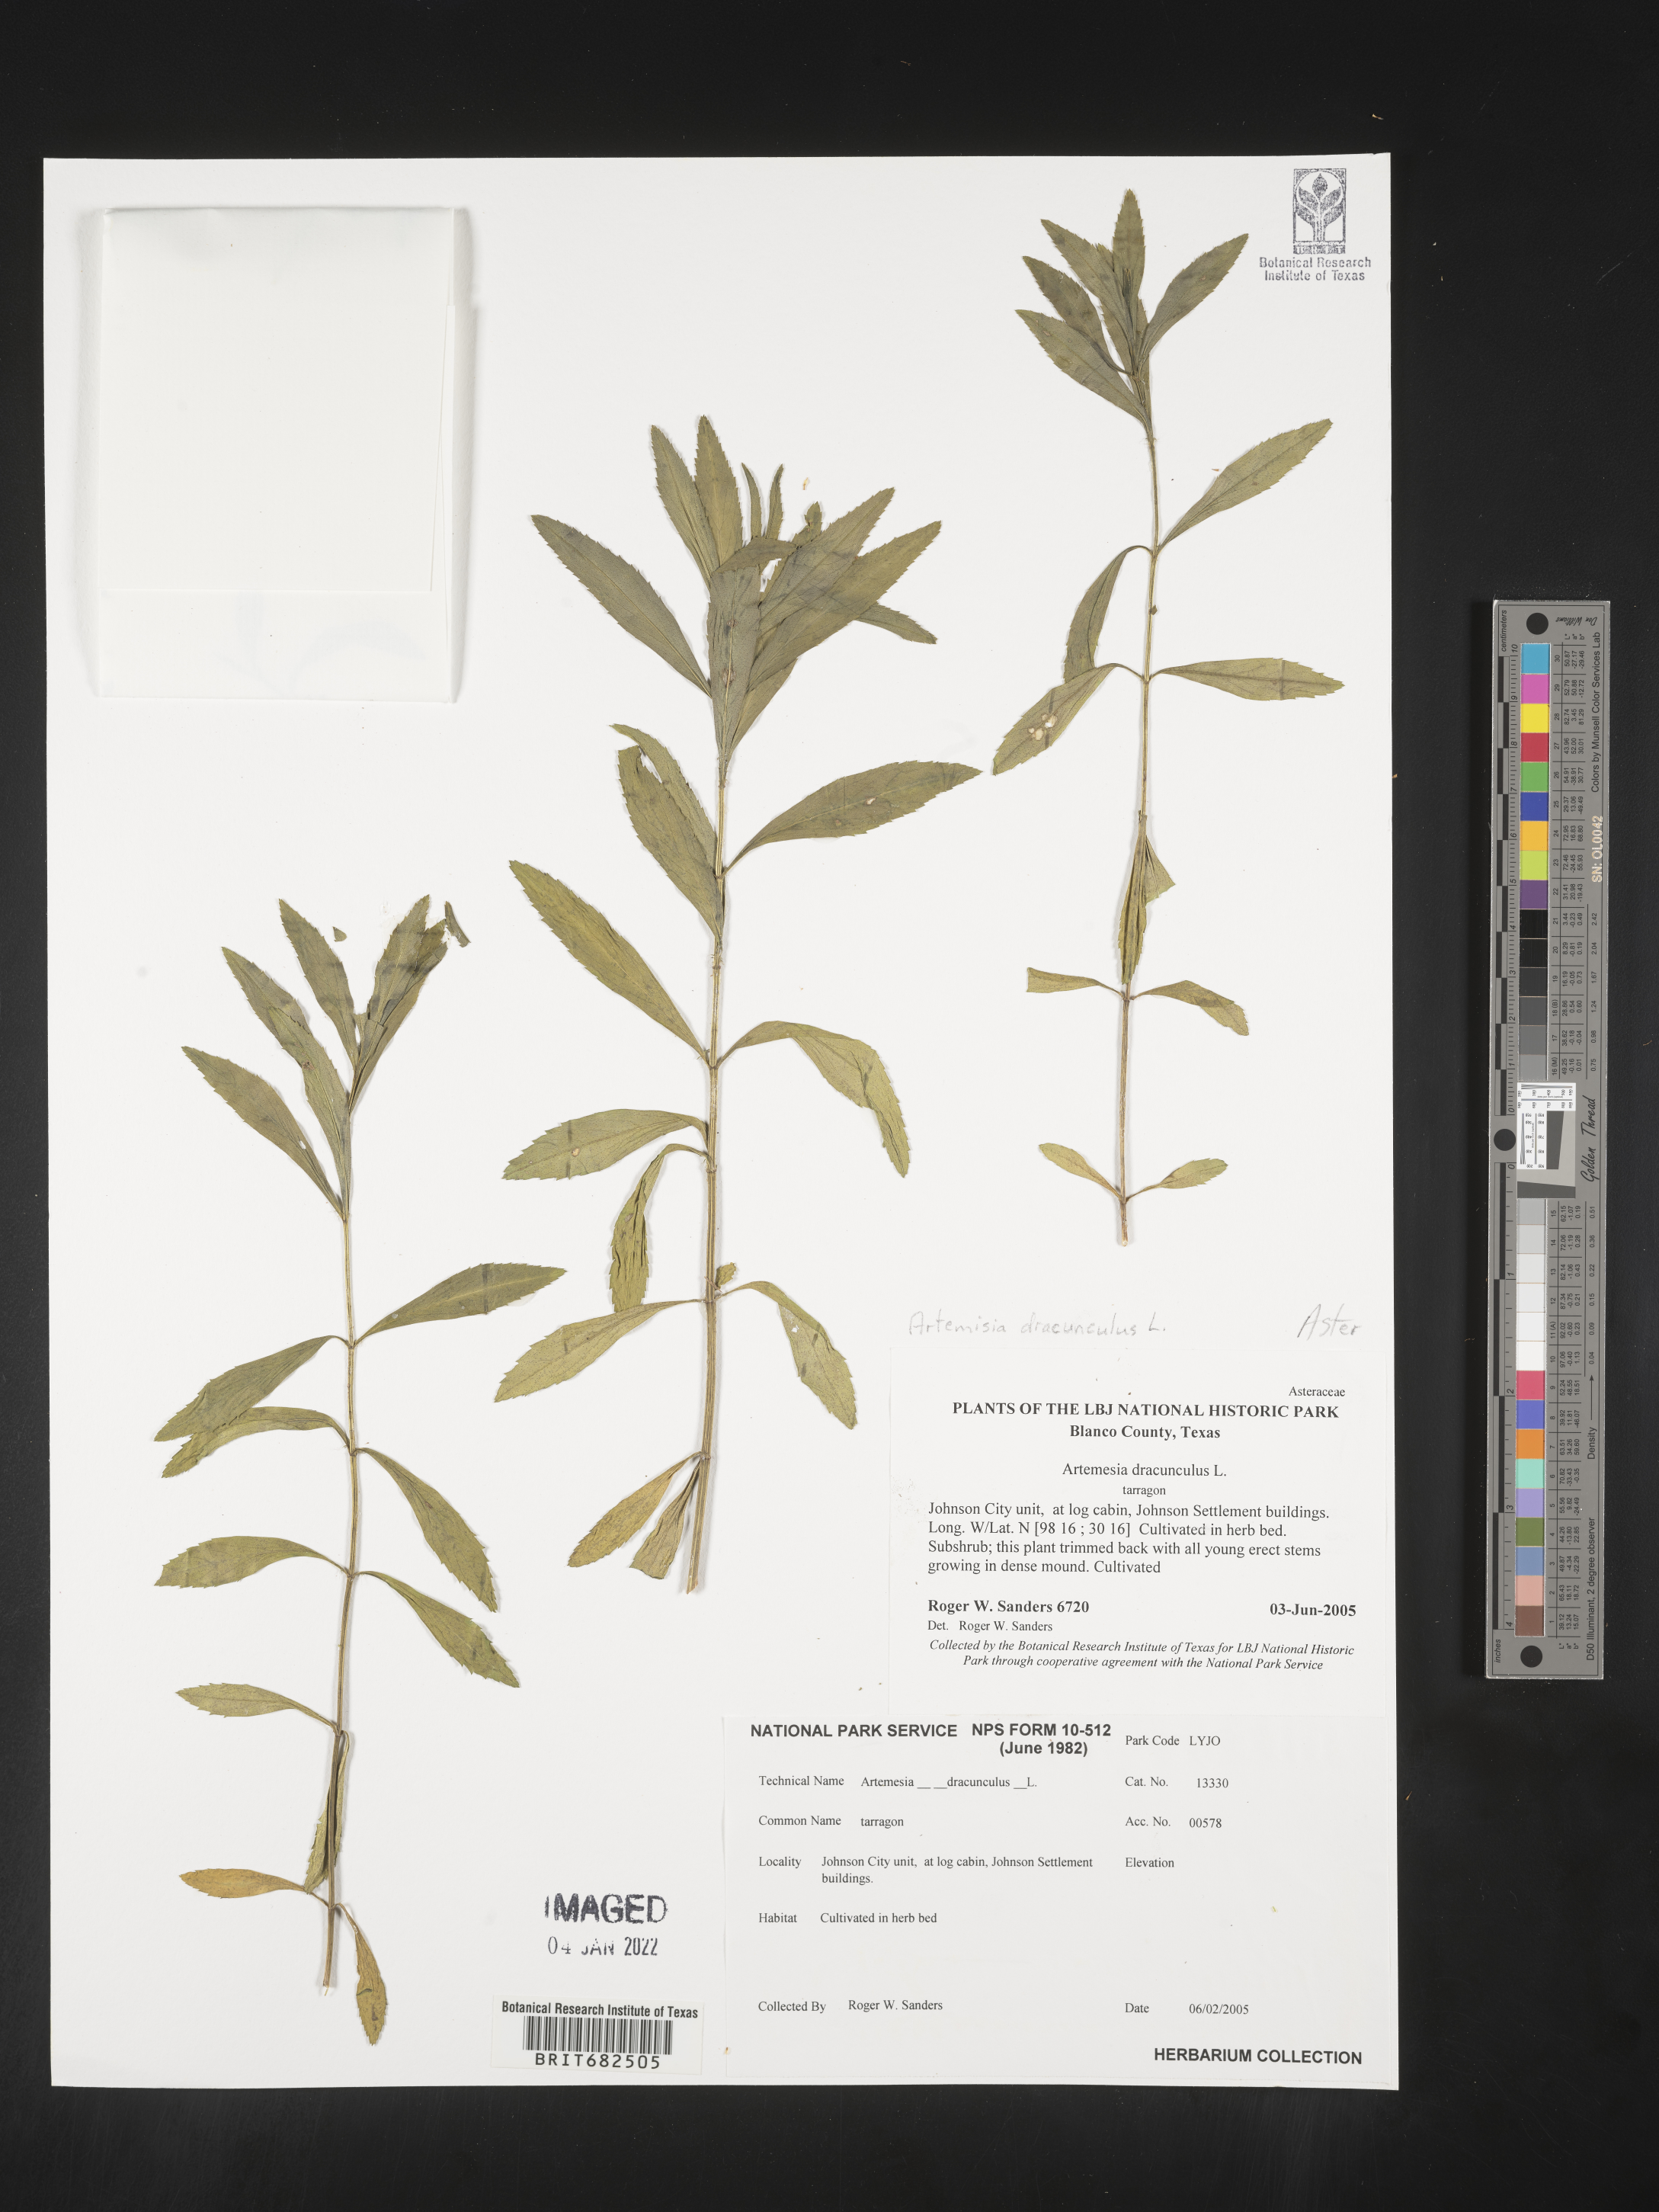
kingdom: Plantae
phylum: Tracheophyta
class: Magnoliopsida
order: Asterales
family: Asteraceae
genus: Artemisia
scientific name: Artemisia
